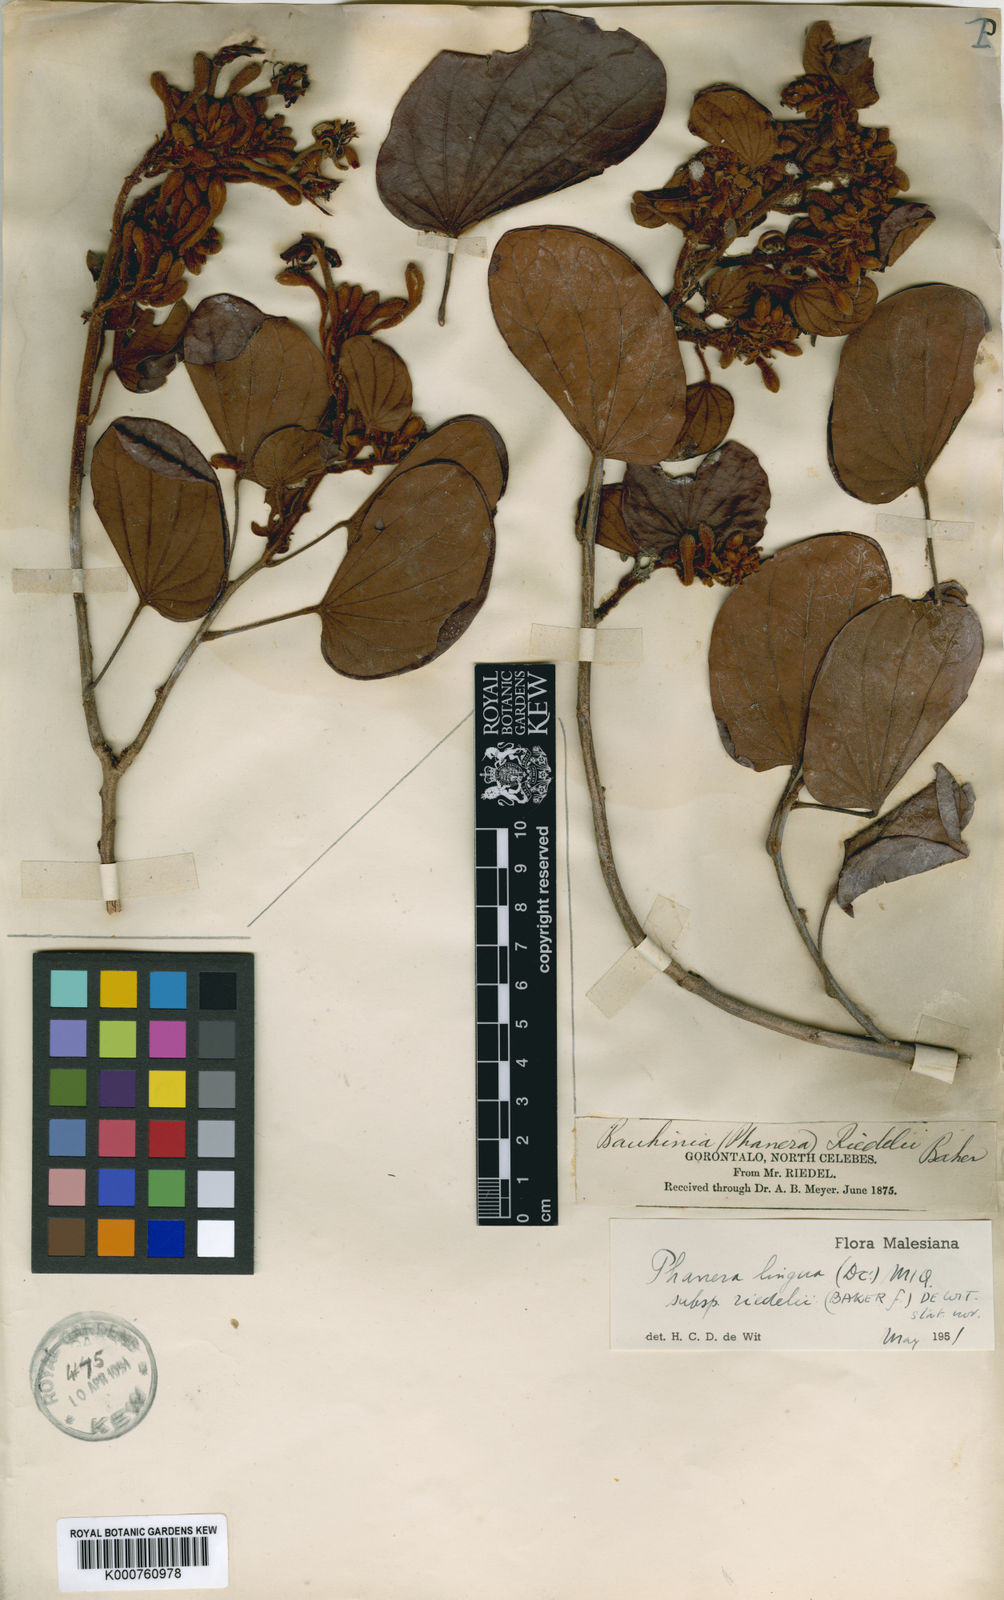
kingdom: Plantae
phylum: Tracheophyta
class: Magnoliopsida
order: Fabales
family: Fabaceae
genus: Phanera
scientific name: Phanera lingua
